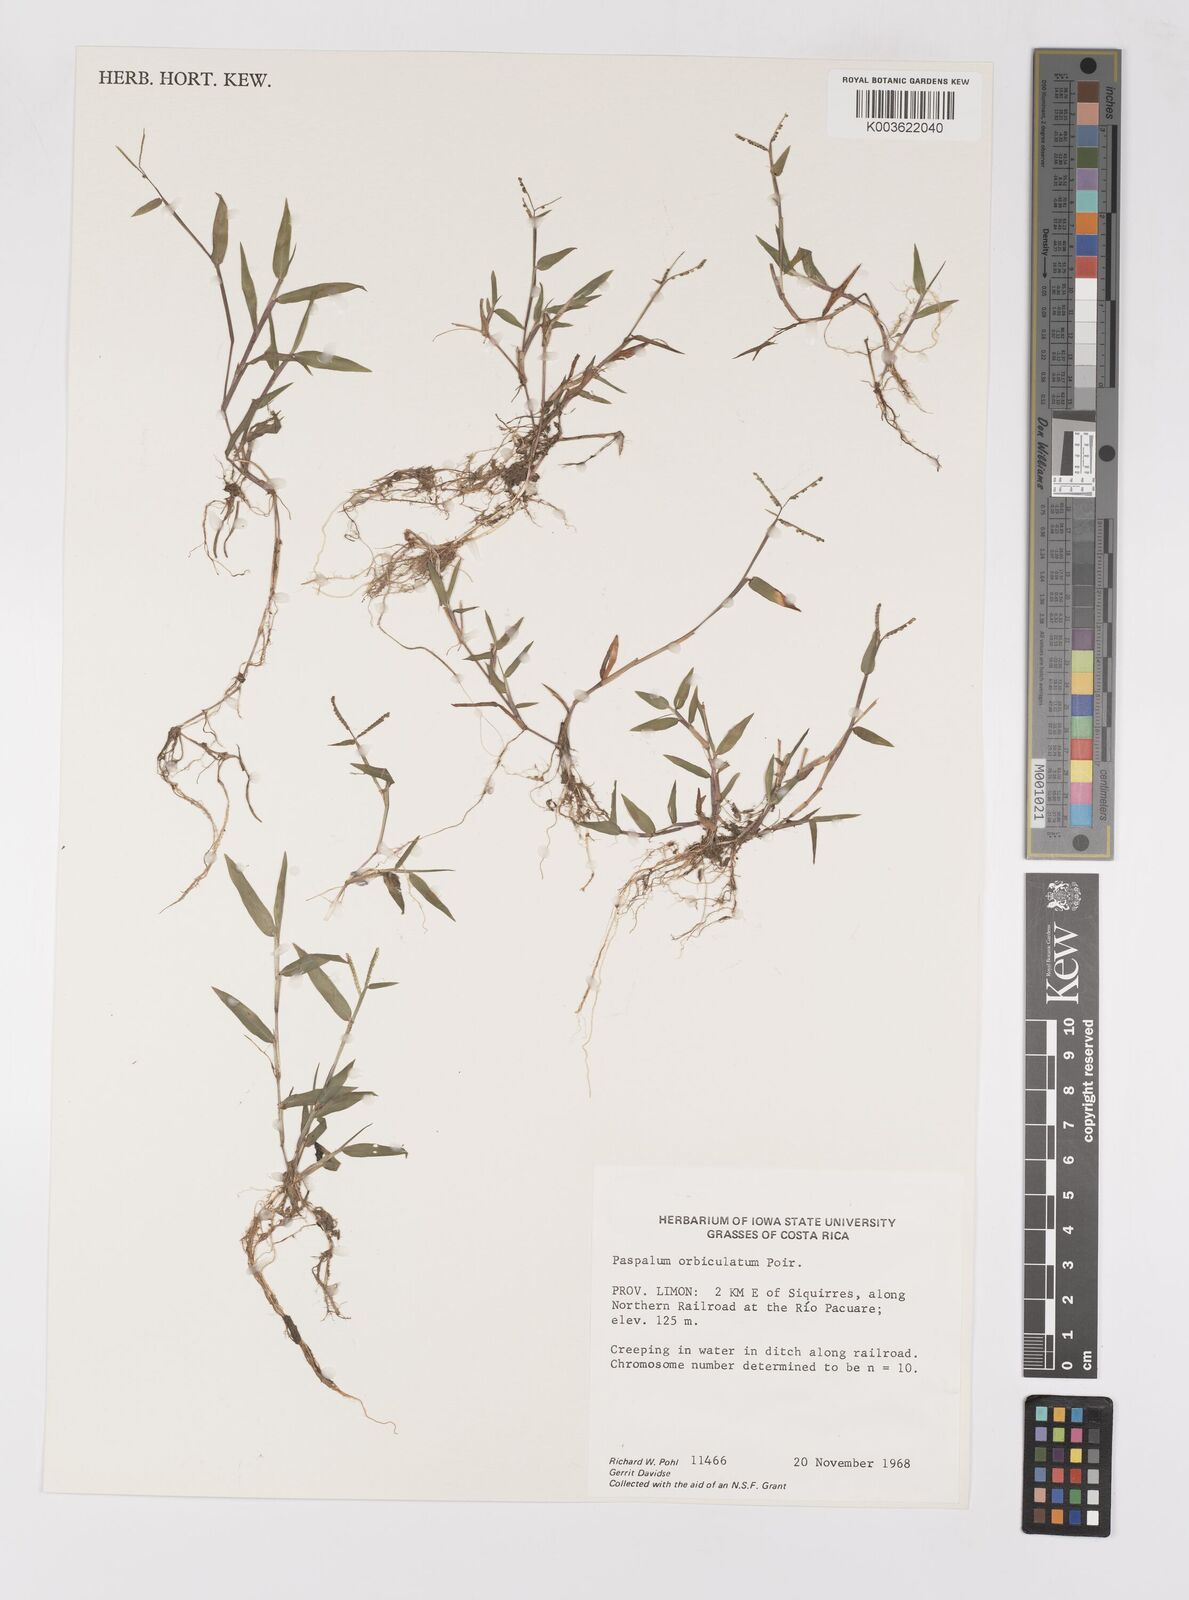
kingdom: Plantae
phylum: Tracheophyta
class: Liliopsida
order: Poales
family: Poaceae
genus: Paspalum
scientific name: Paspalum orbiculatum
